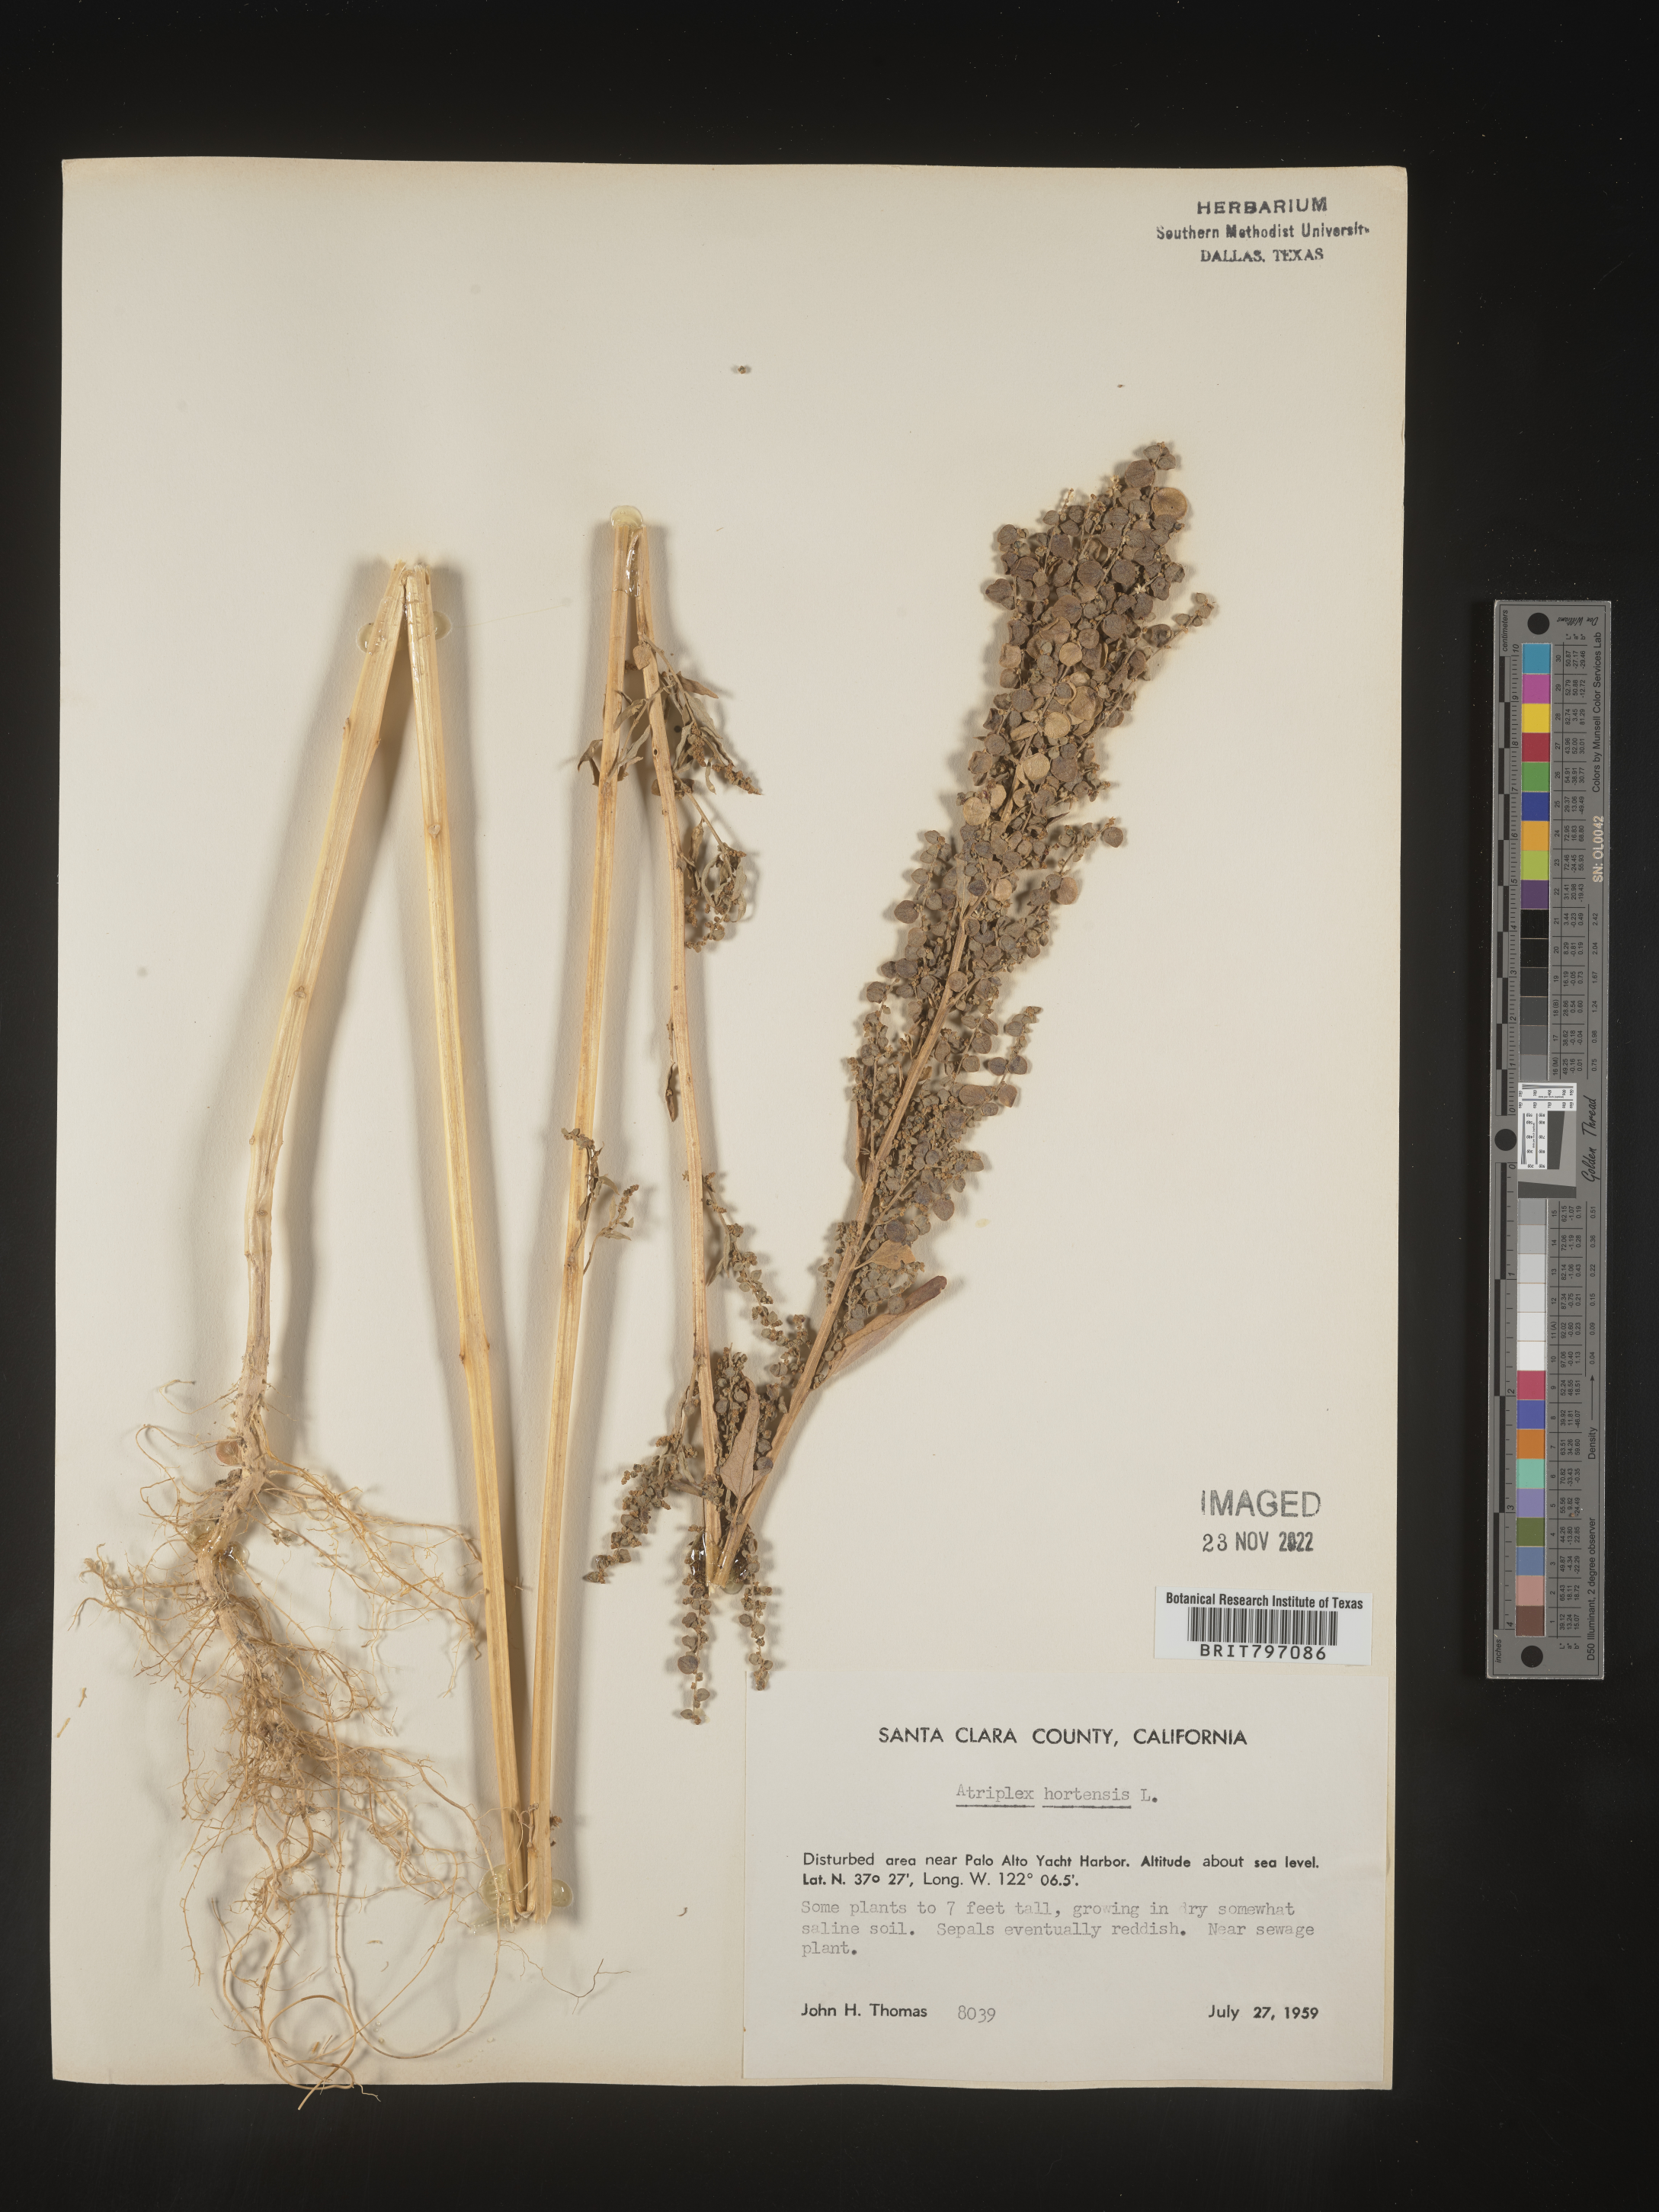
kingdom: Plantae
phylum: Tracheophyta
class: Magnoliopsida
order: Caryophyllales
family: Amaranthaceae
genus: Atriplex
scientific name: Atriplex
